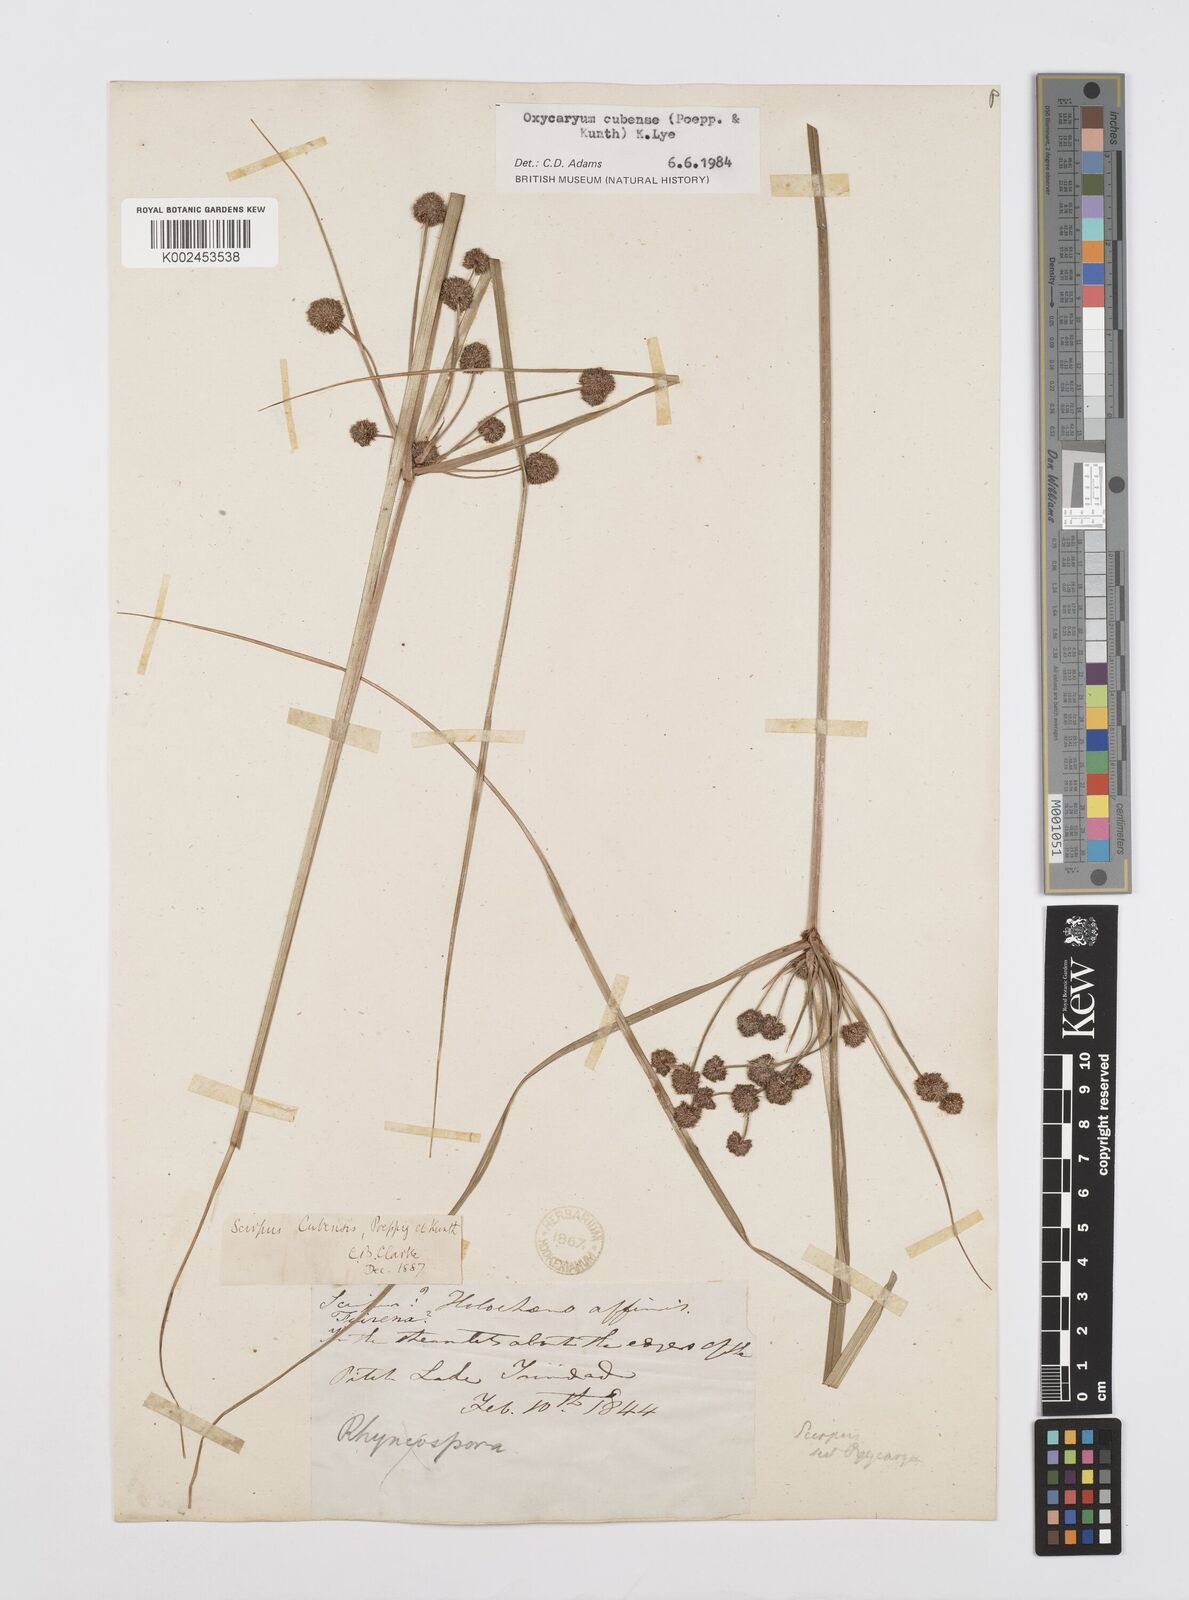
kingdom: Plantae
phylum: Tracheophyta
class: Liliopsida
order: Poales
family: Cyperaceae
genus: Cyperus
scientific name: Cyperus elegans
